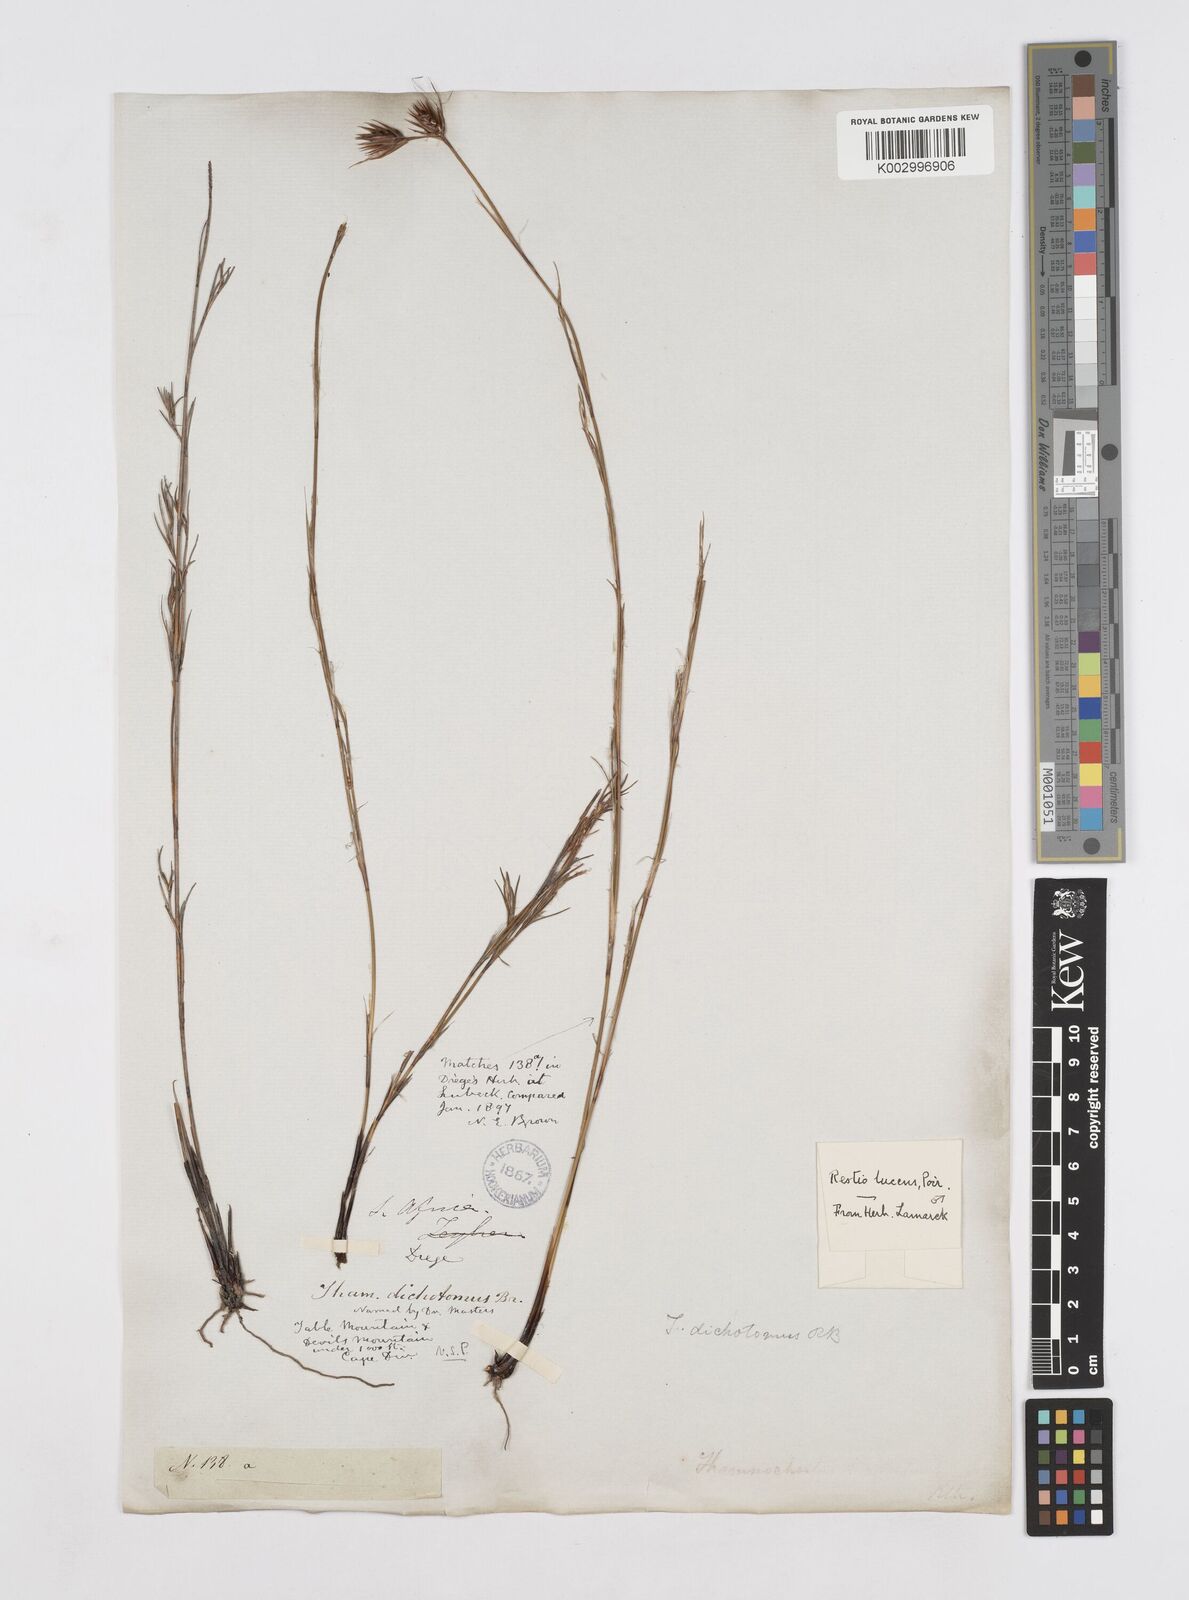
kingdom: Plantae
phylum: Tracheophyta
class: Liliopsida
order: Poales
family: Restionaceae
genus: Thamnochortus
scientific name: Thamnochortus lucens
